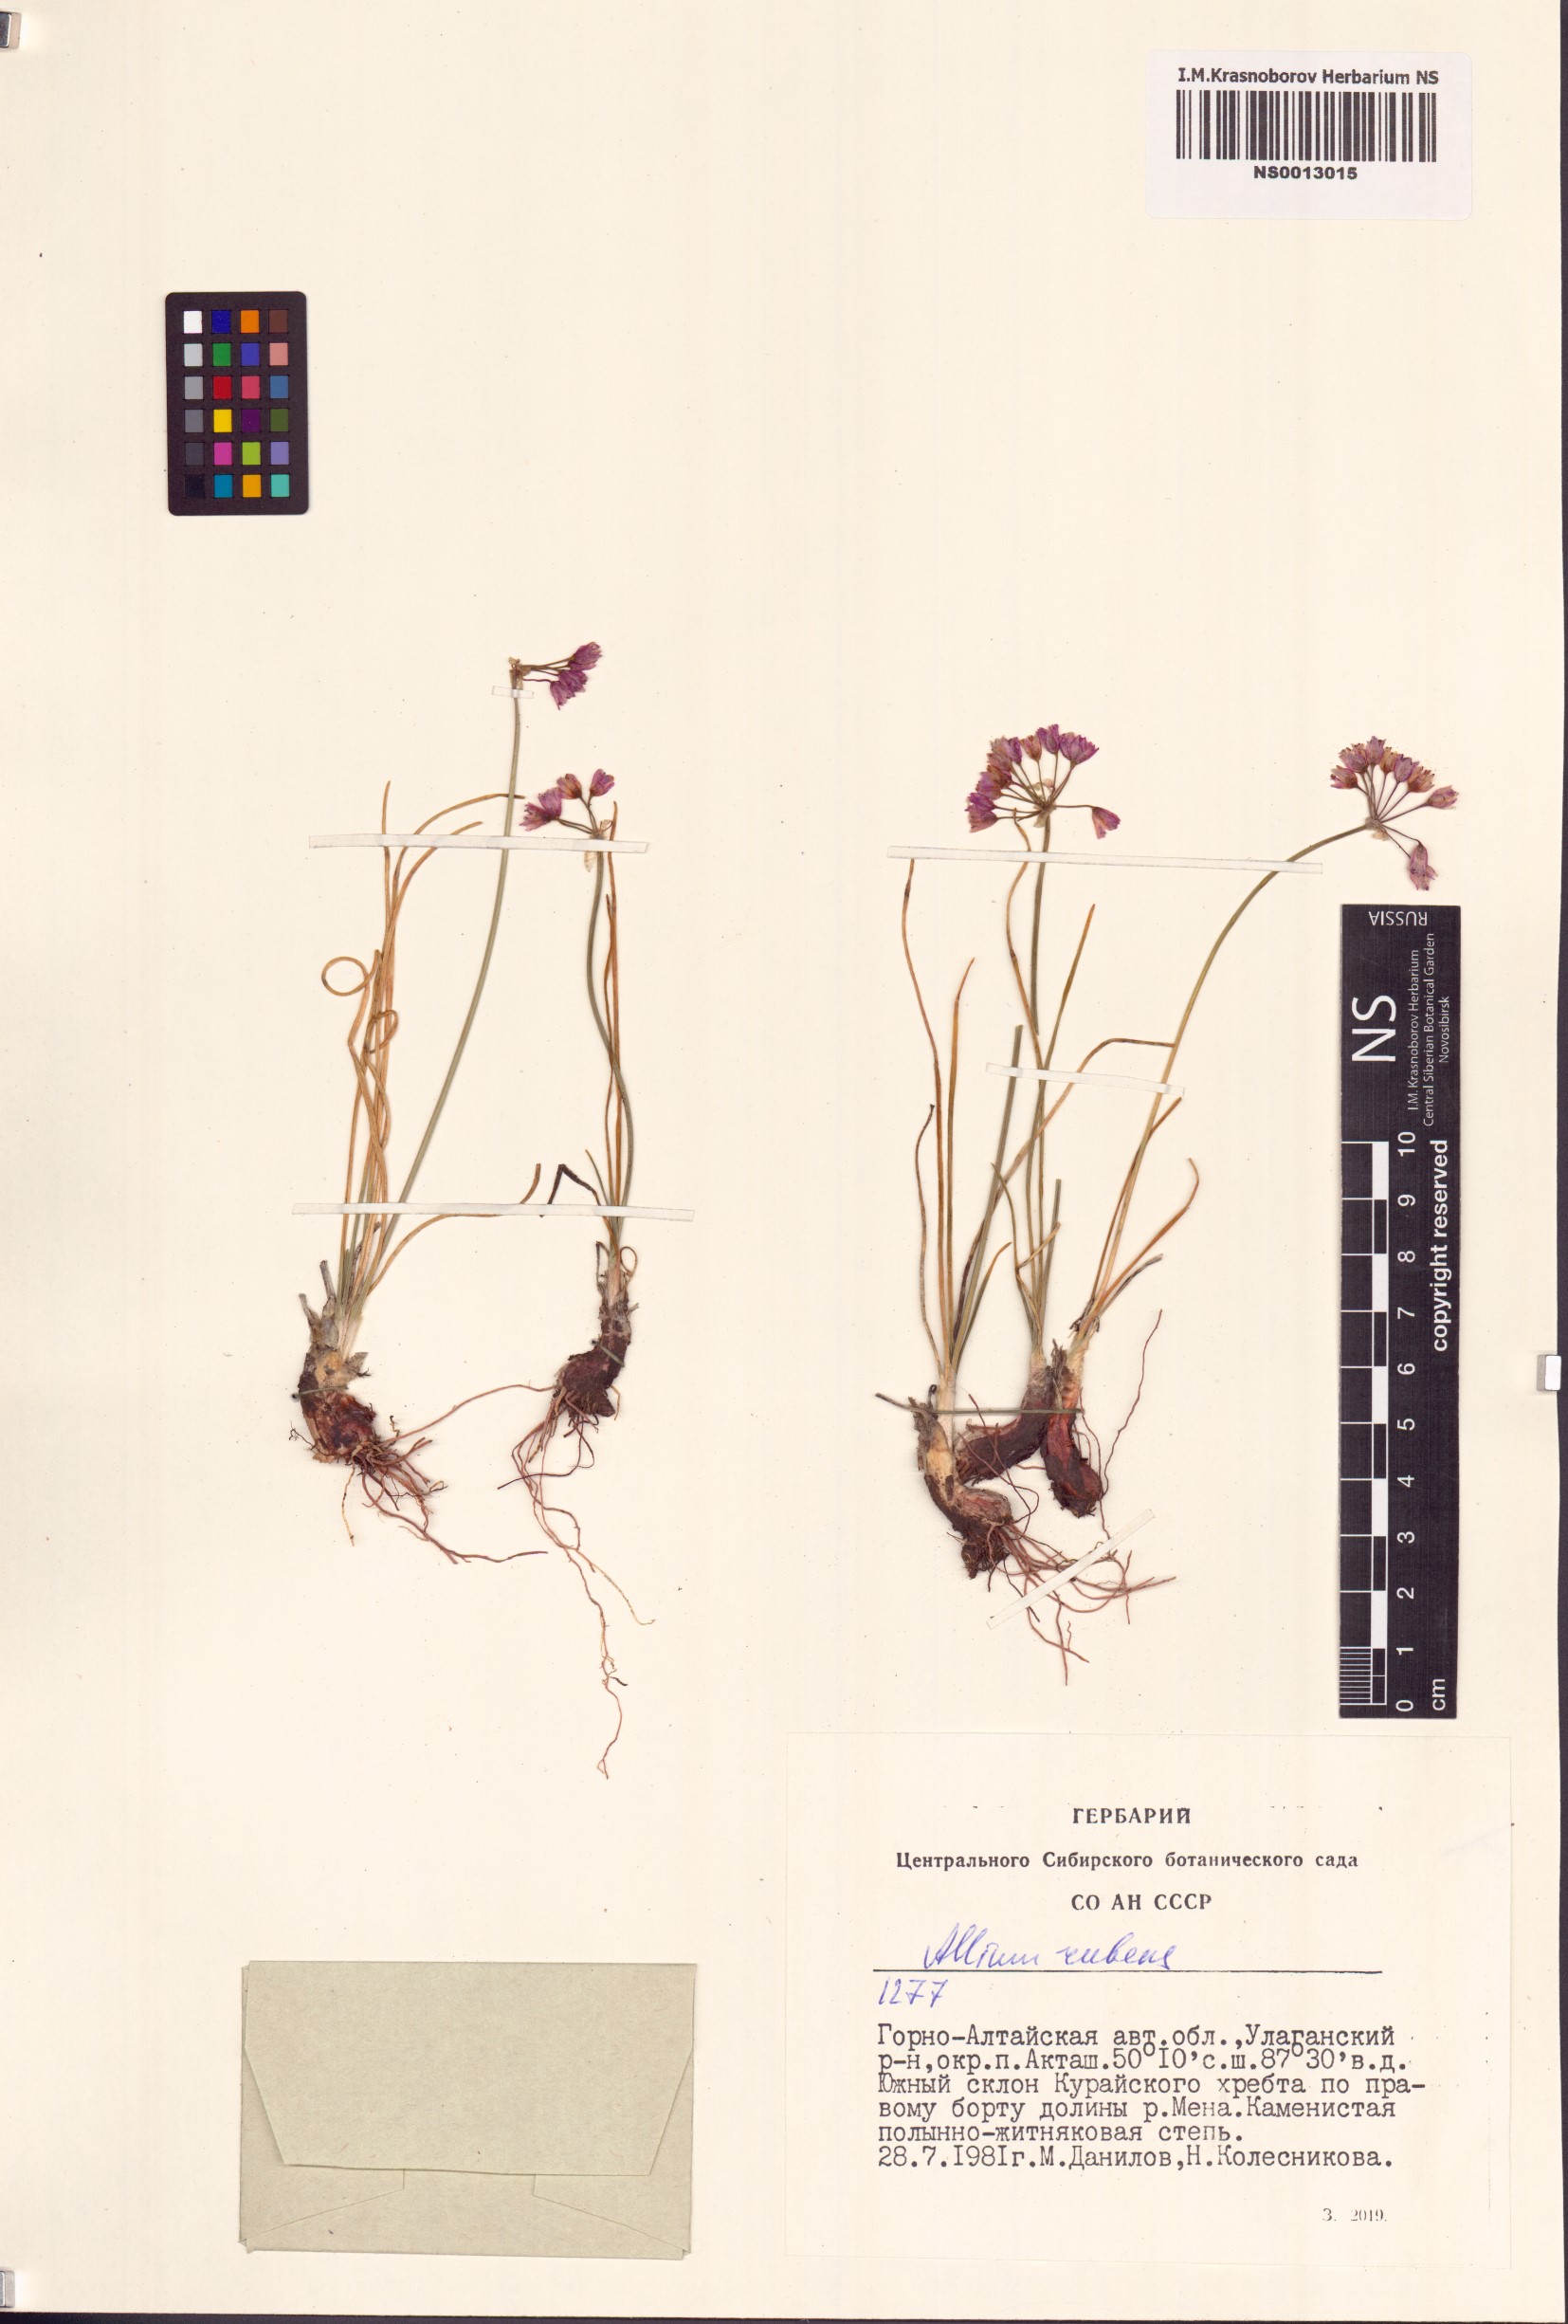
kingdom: Plantae
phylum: Tracheophyta
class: Liliopsida
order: Asparagales
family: Amaryllidaceae
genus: Allium
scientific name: Allium rubens
